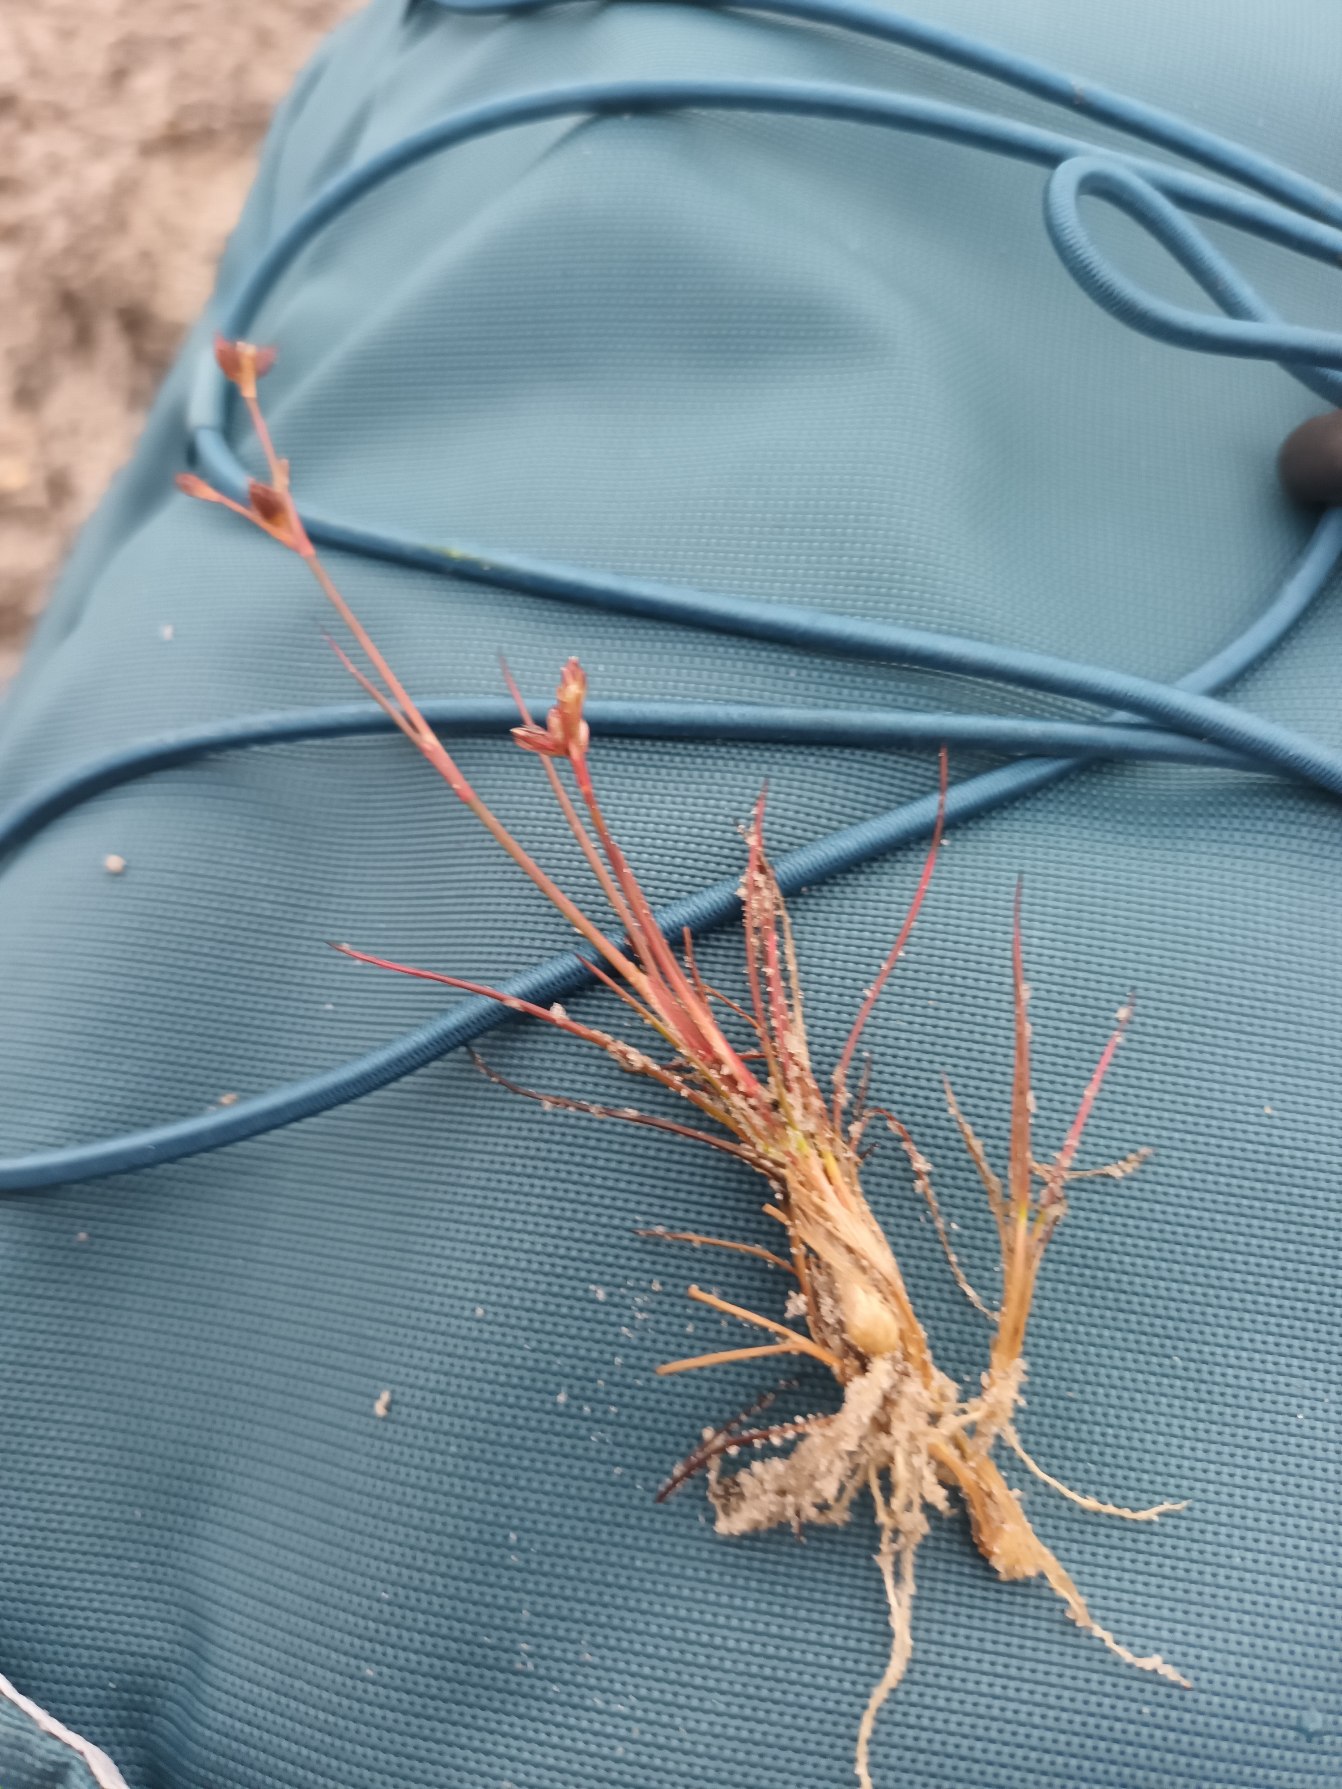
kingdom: Plantae
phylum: Tracheophyta
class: Liliopsida
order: Poales
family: Juncaceae
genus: Juncus
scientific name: Juncus bulbosus
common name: Liden siv
